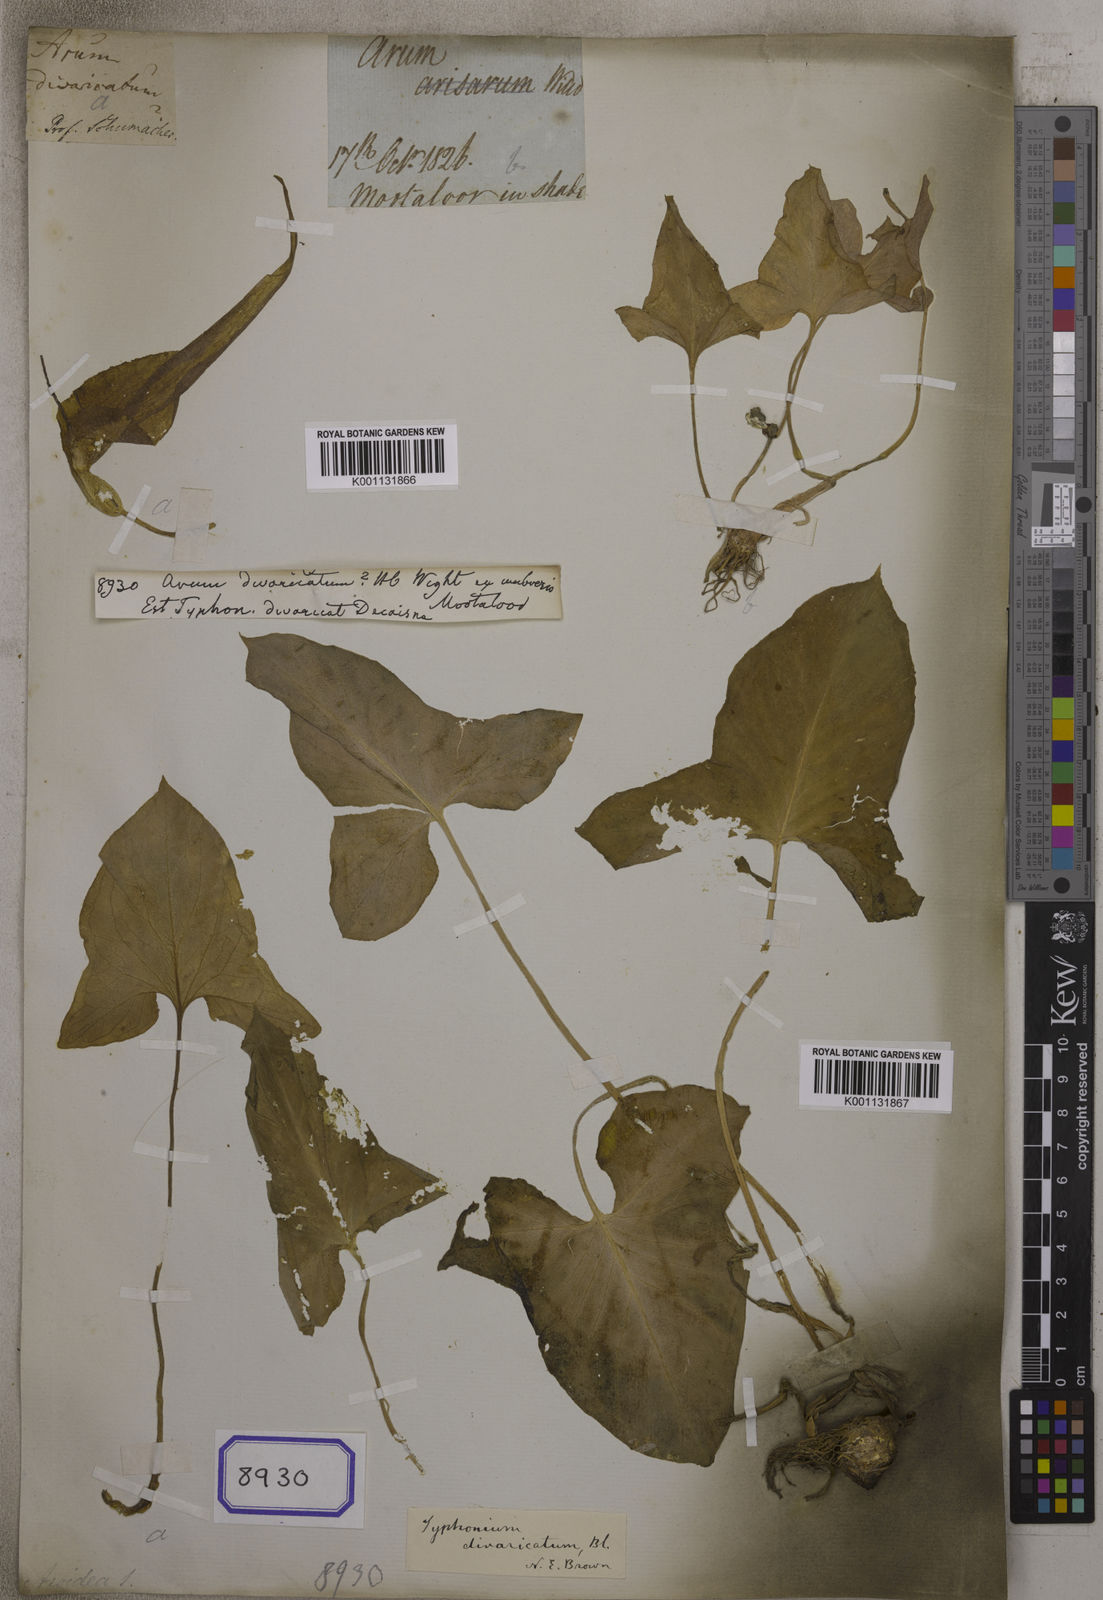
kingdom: Plantae
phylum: Tracheophyta
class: Liliopsida
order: Alismatales
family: Araceae
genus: Typhonium
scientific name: Typhonium flagelliforme
